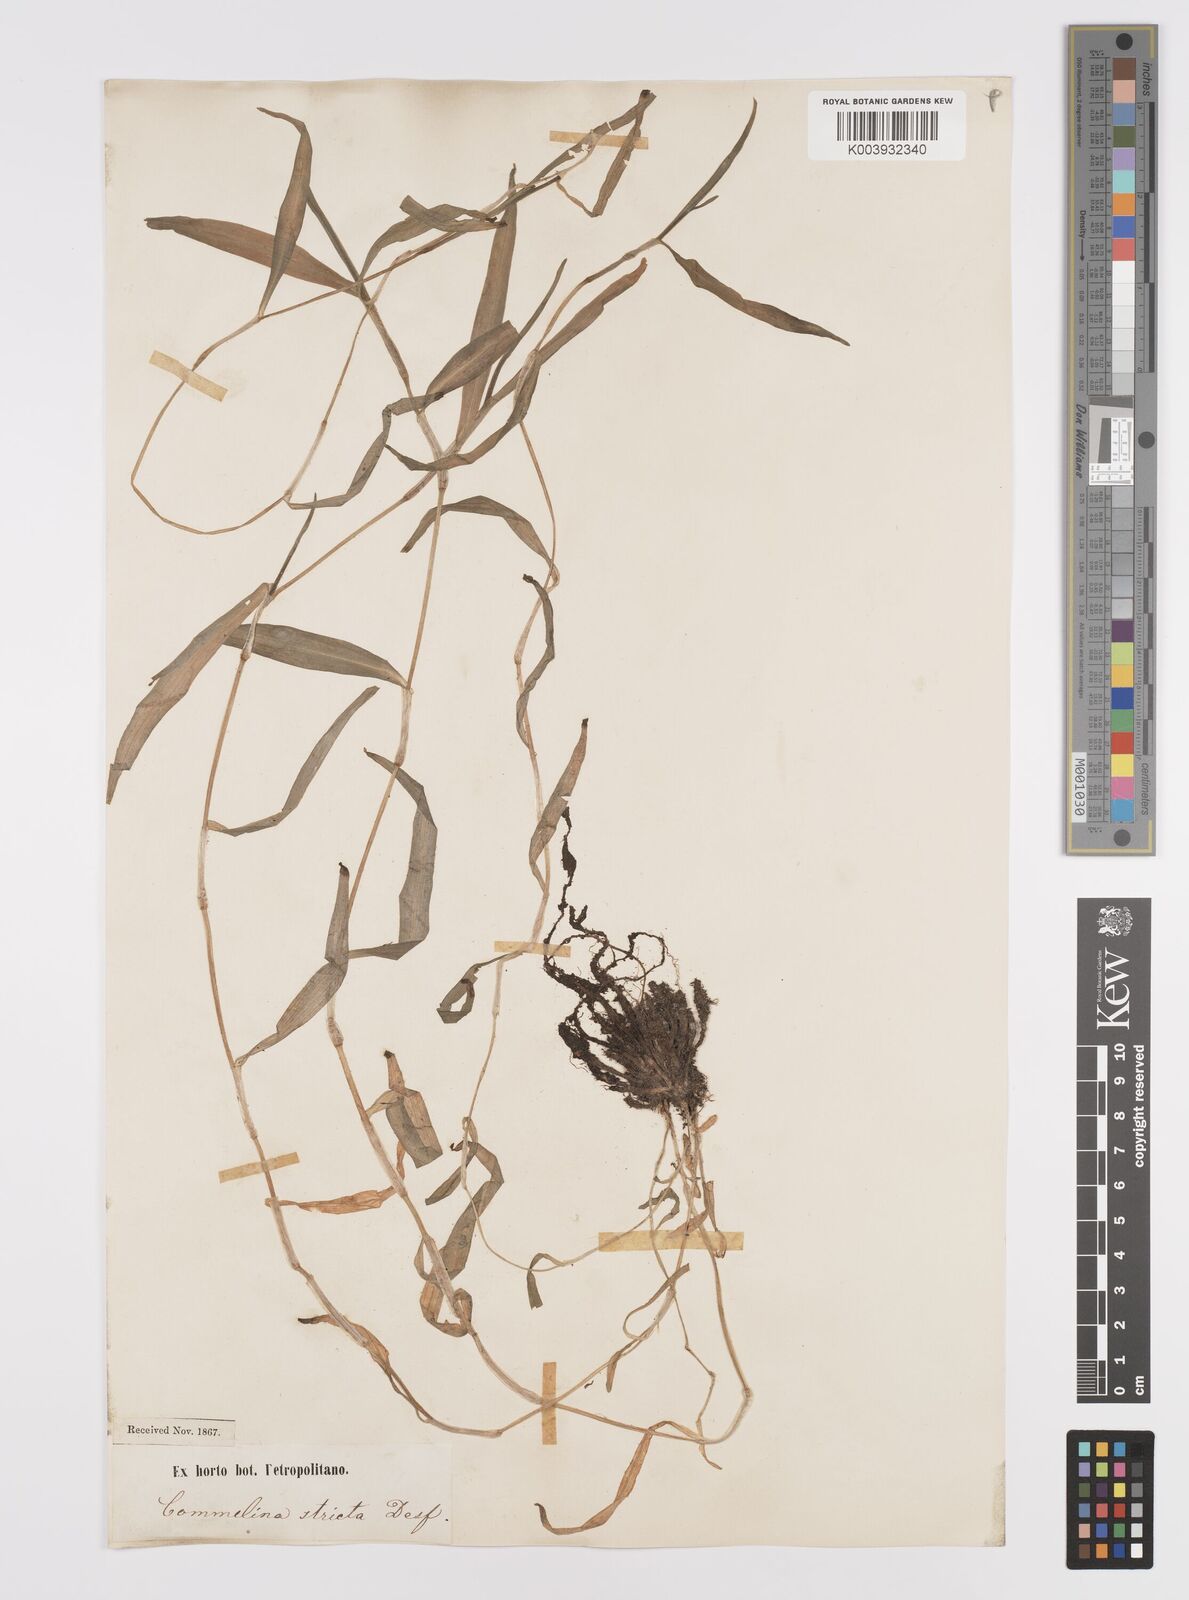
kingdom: Plantae
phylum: Tracheophyta
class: Liliopsida
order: Commelinales
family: Commelinaceae
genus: Commelina
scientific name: Commelina dianthifolia
